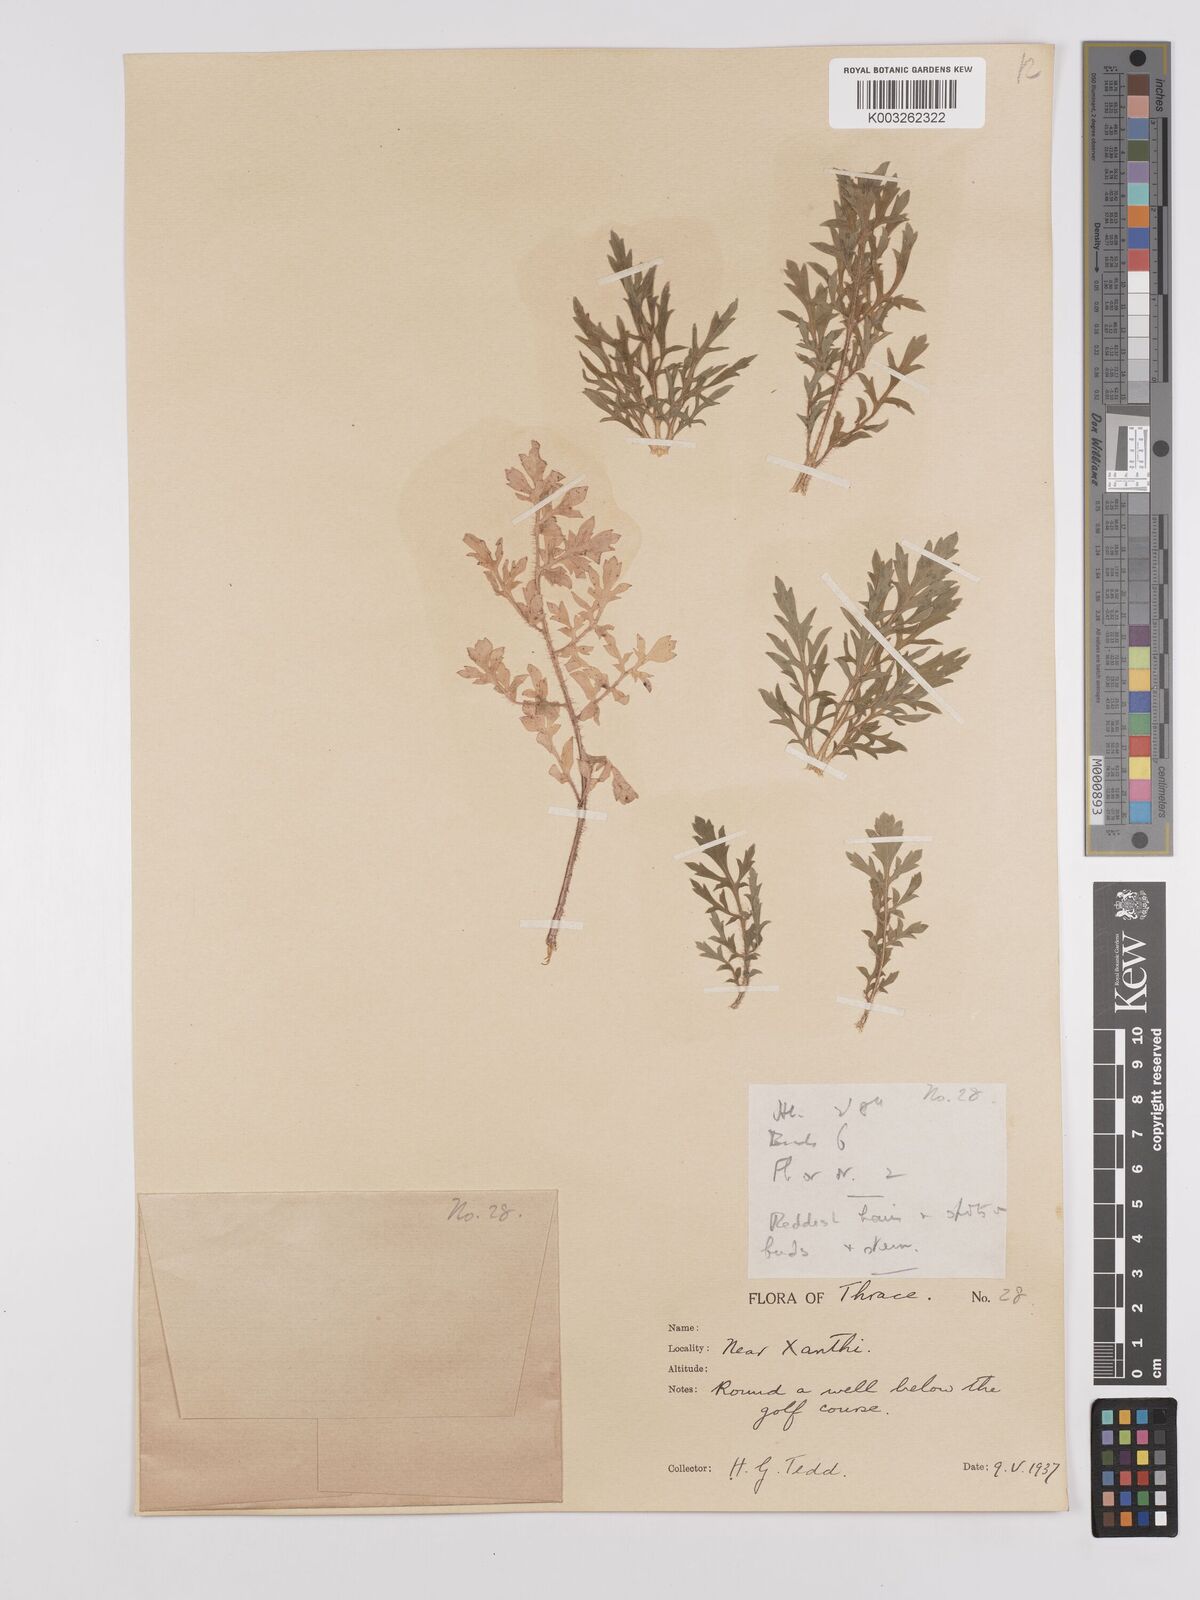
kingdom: Plantae
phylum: Tracheophyta
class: Magnoliopsida
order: Ranunculales
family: Papaveraceae
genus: Papaver
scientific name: Papaver rhoeas
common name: Corn poppy
